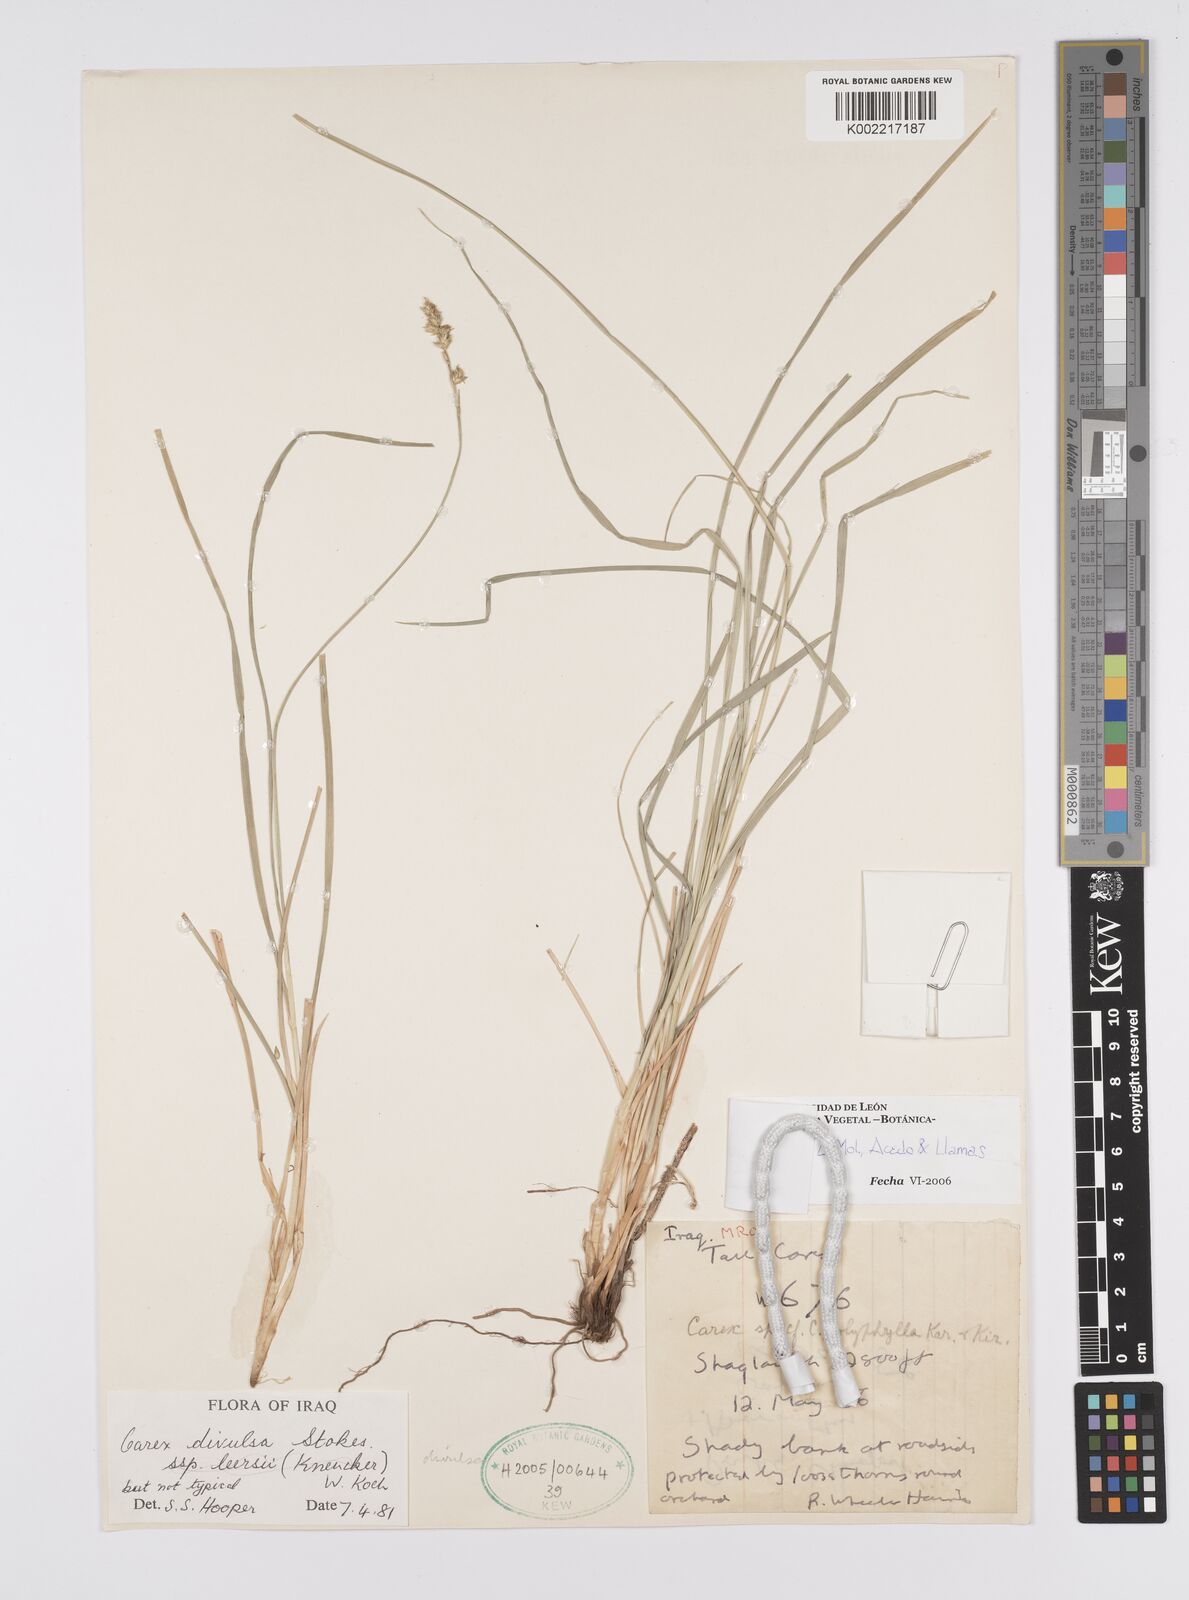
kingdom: Plantae
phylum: Tracheophyta
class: Liliopsida
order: Poales
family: Cyperaceae
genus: Carex
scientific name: Carex egorovae
